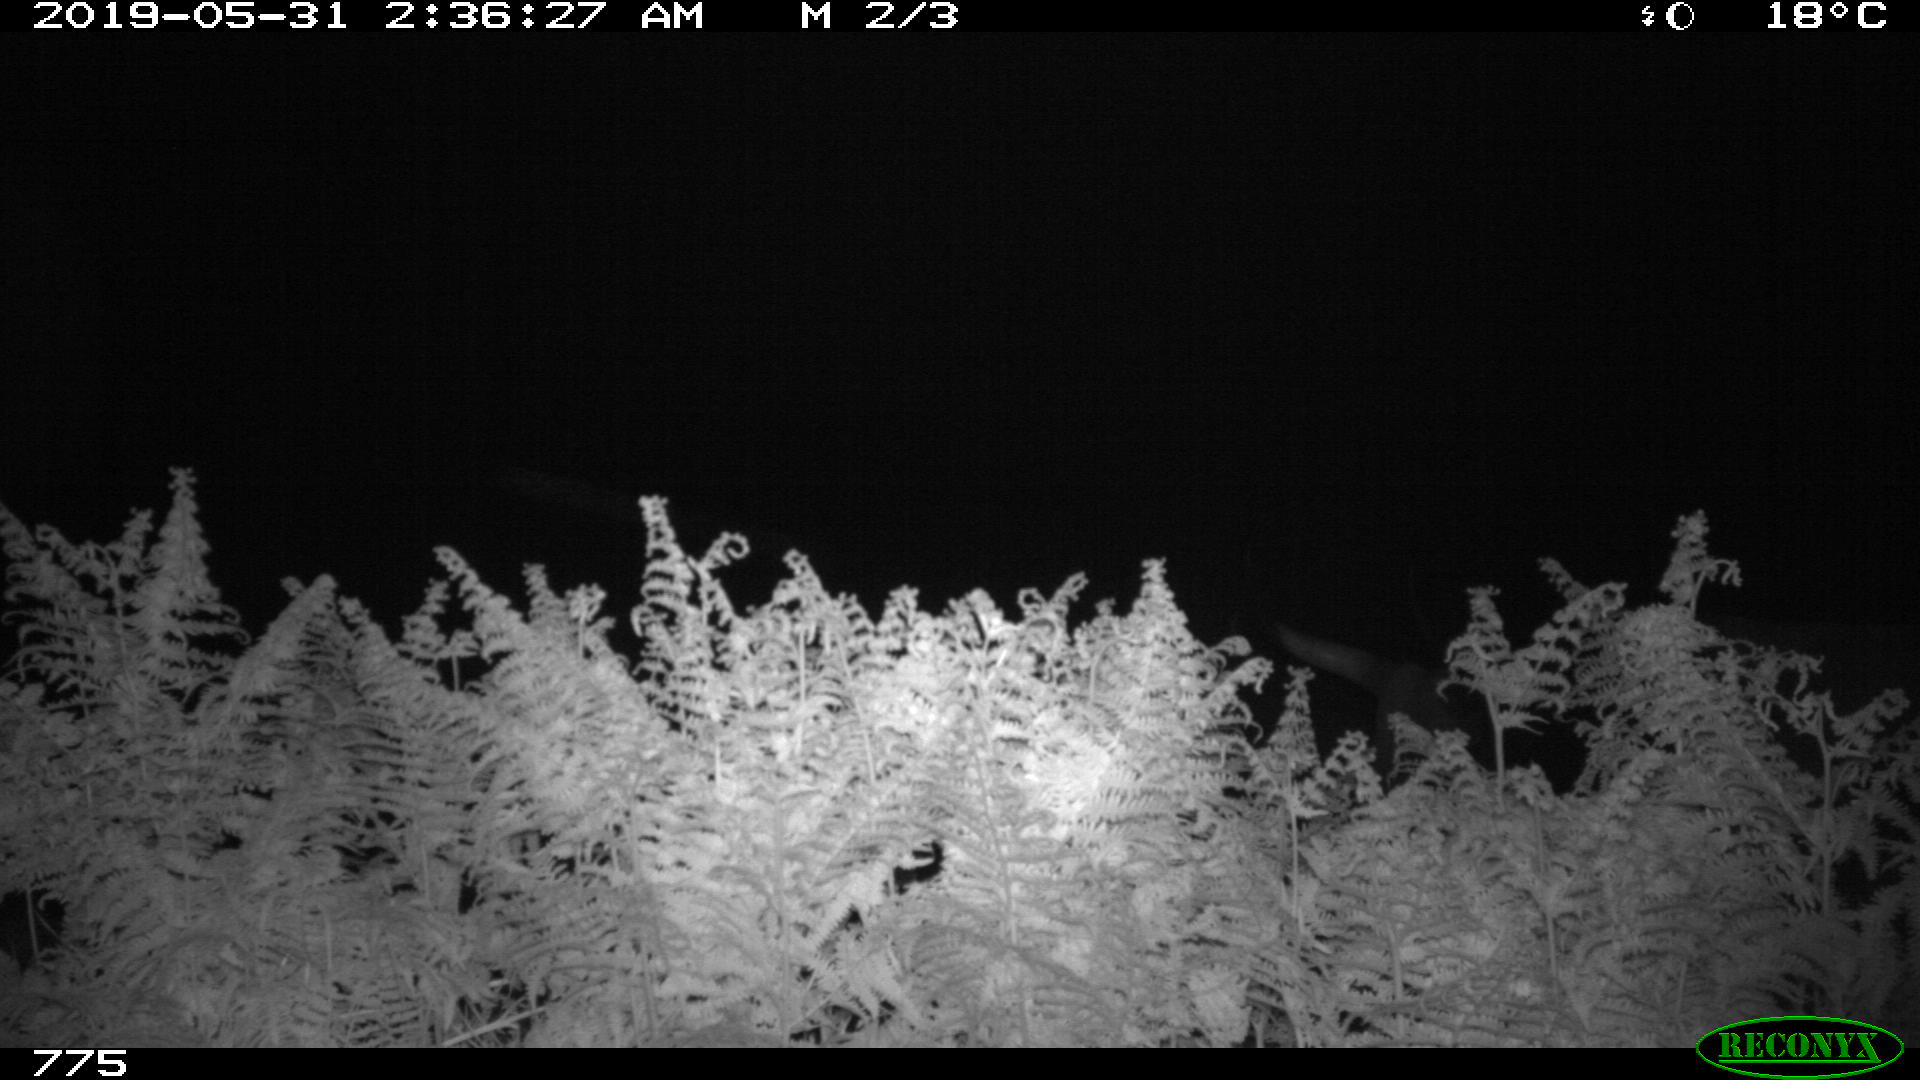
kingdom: Animalia
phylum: Chordata
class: Mammalia
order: Artiodactyla
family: Bovidae
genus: Bos
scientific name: Bos taurus
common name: Domesticated cattle
